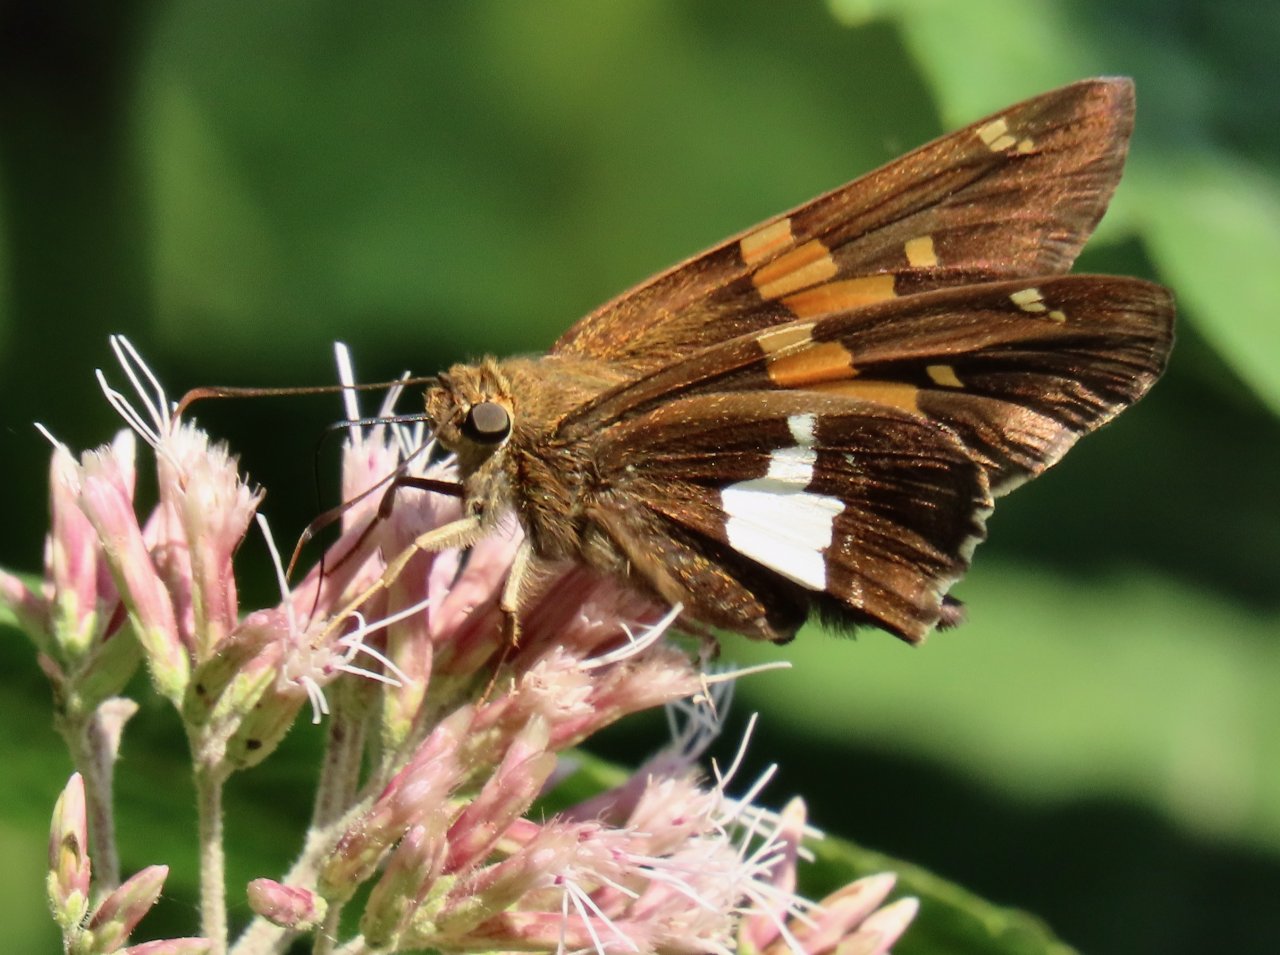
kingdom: Animalia
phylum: Arthropoda
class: Insecta
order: Lepidoptera
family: Hesperiidae
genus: Epargyreus
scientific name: Epargyreus clarus
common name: Silver-spotted Skipper
